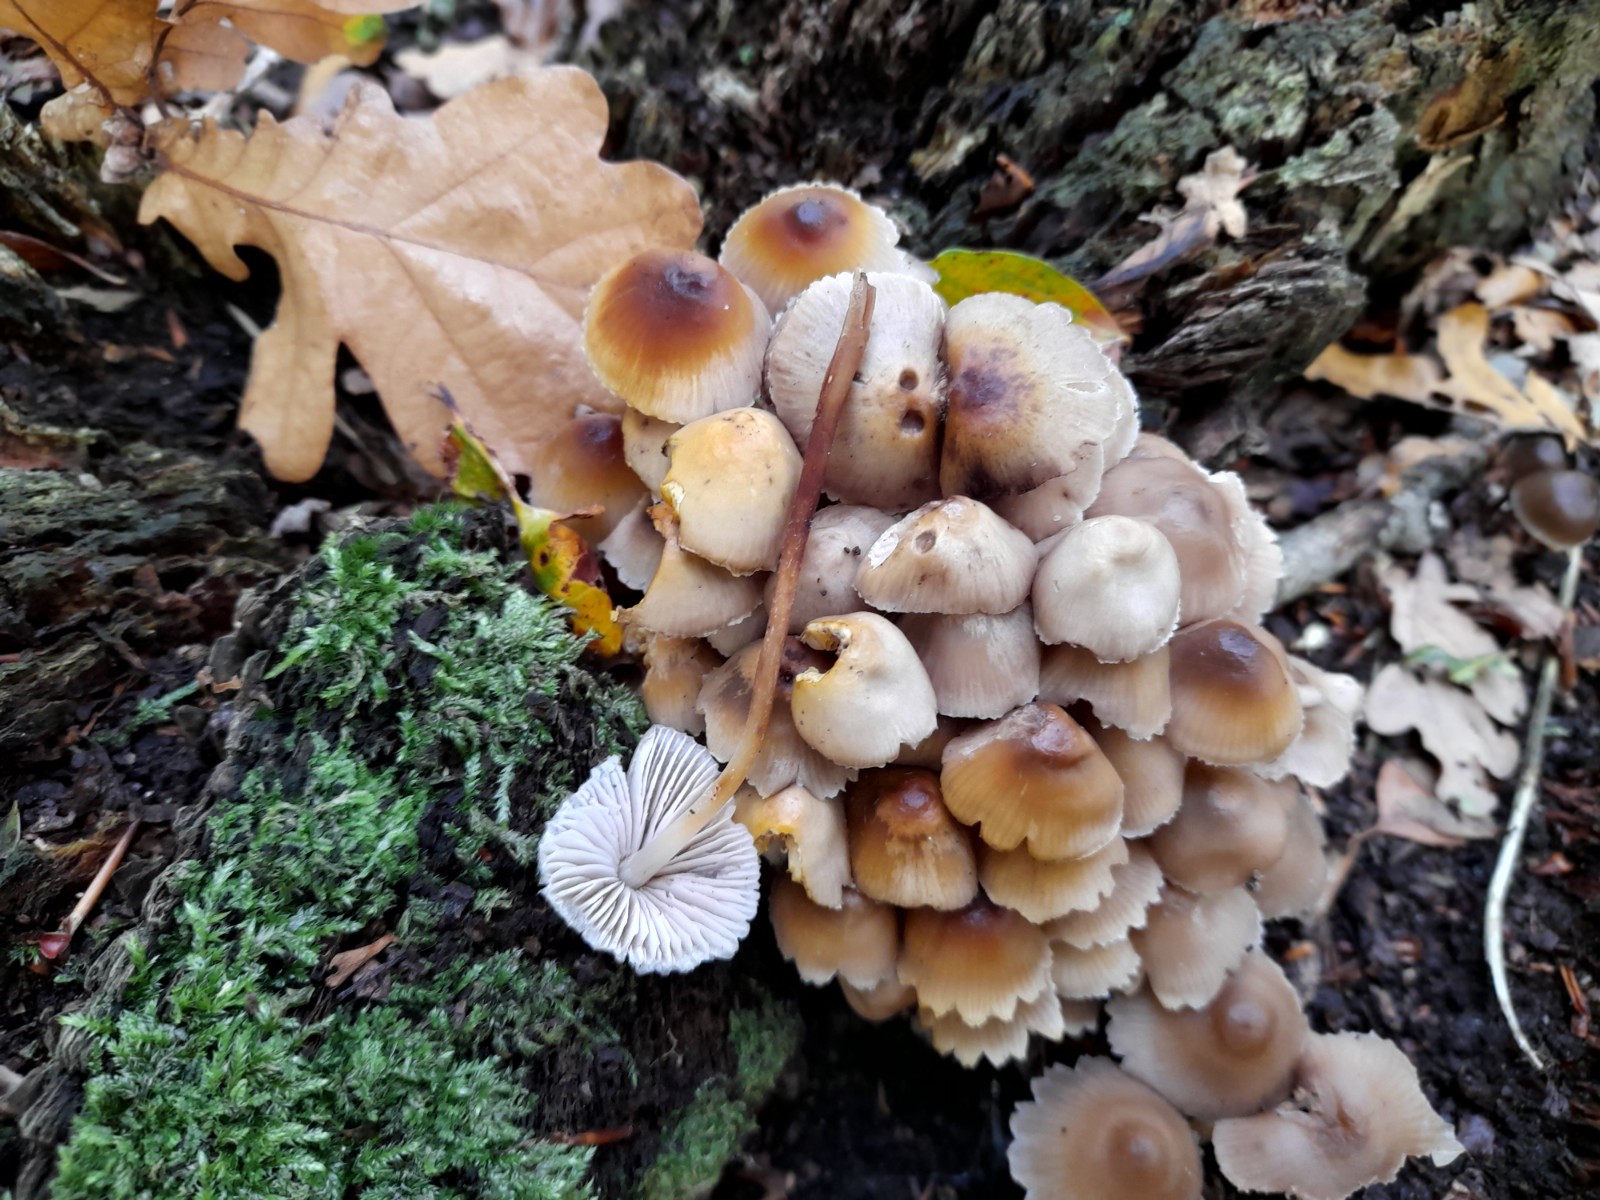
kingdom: Fungi
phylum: Basidiomycota
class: Agaricomycetes
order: Agaricales
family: Mycenaceae
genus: Mycena
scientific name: Mycena inclinata
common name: nikkende huesvamp
